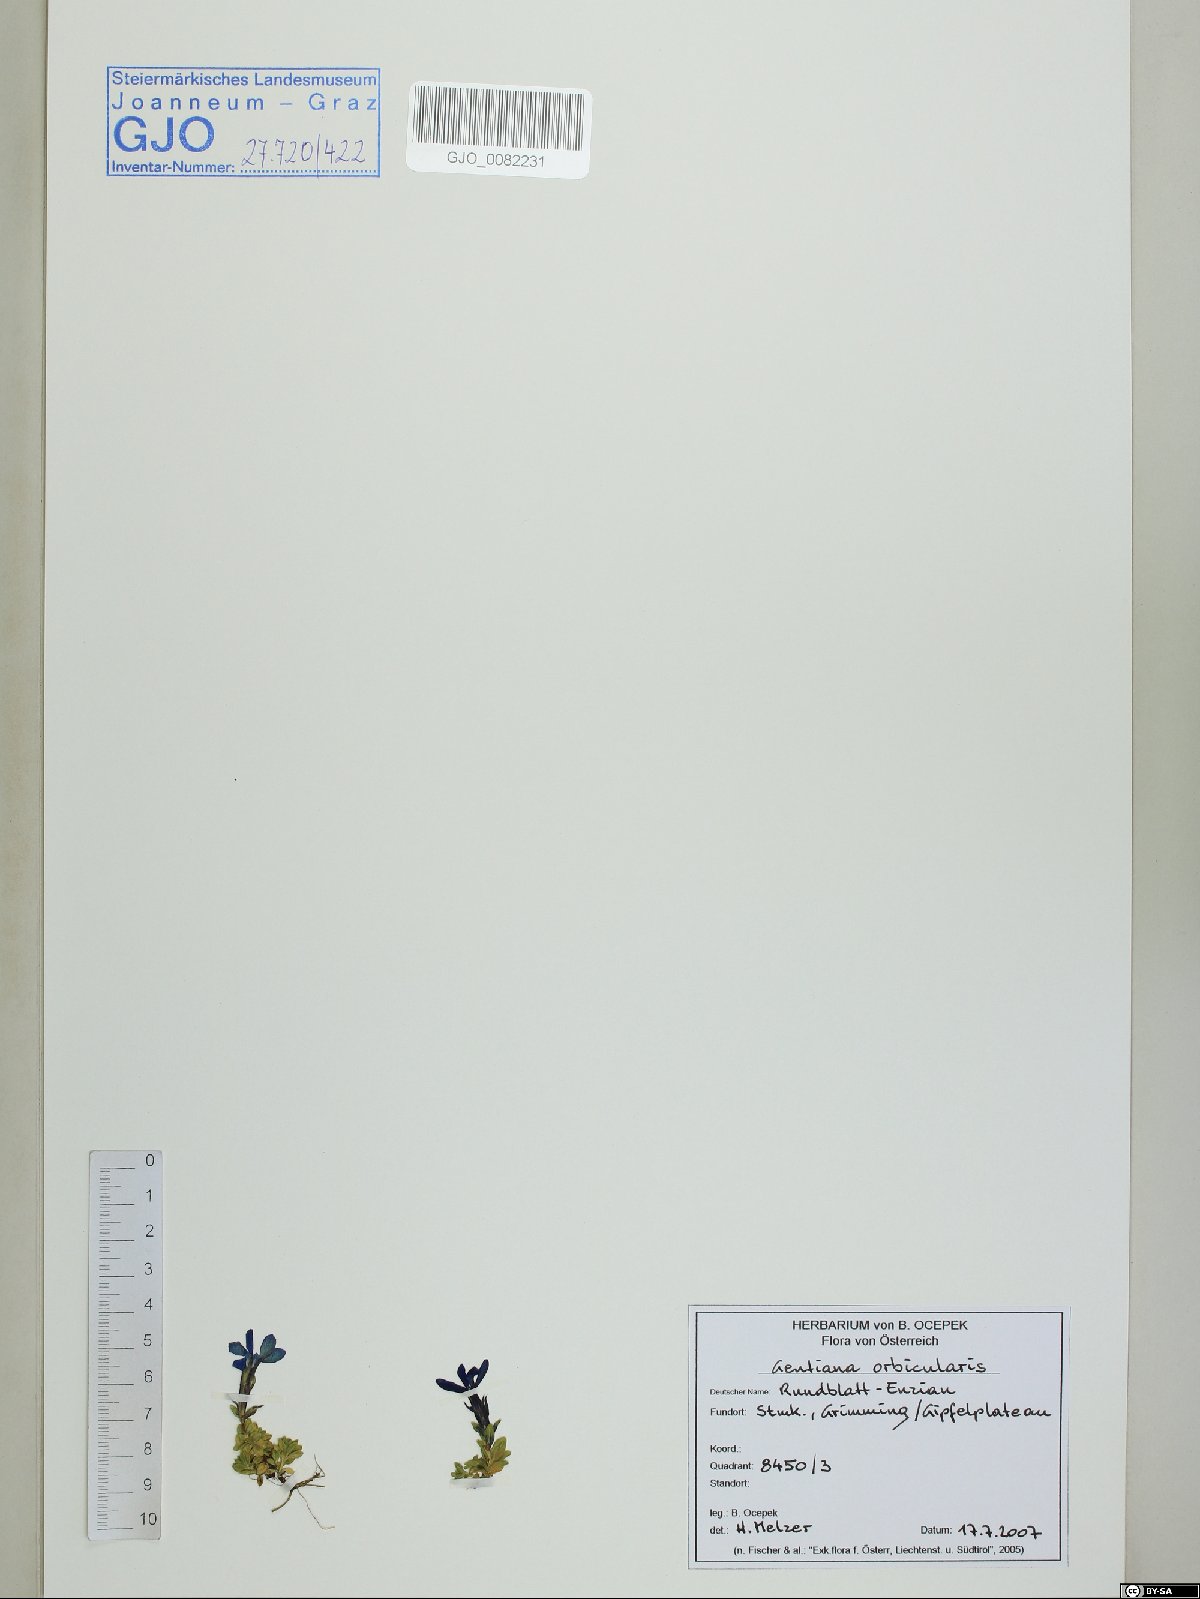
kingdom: Plantae
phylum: Tracheophyta
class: Magnoliopsida
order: Gentianales
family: Gentianaceae
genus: Gentiana
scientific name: Gentiana orbicularis
